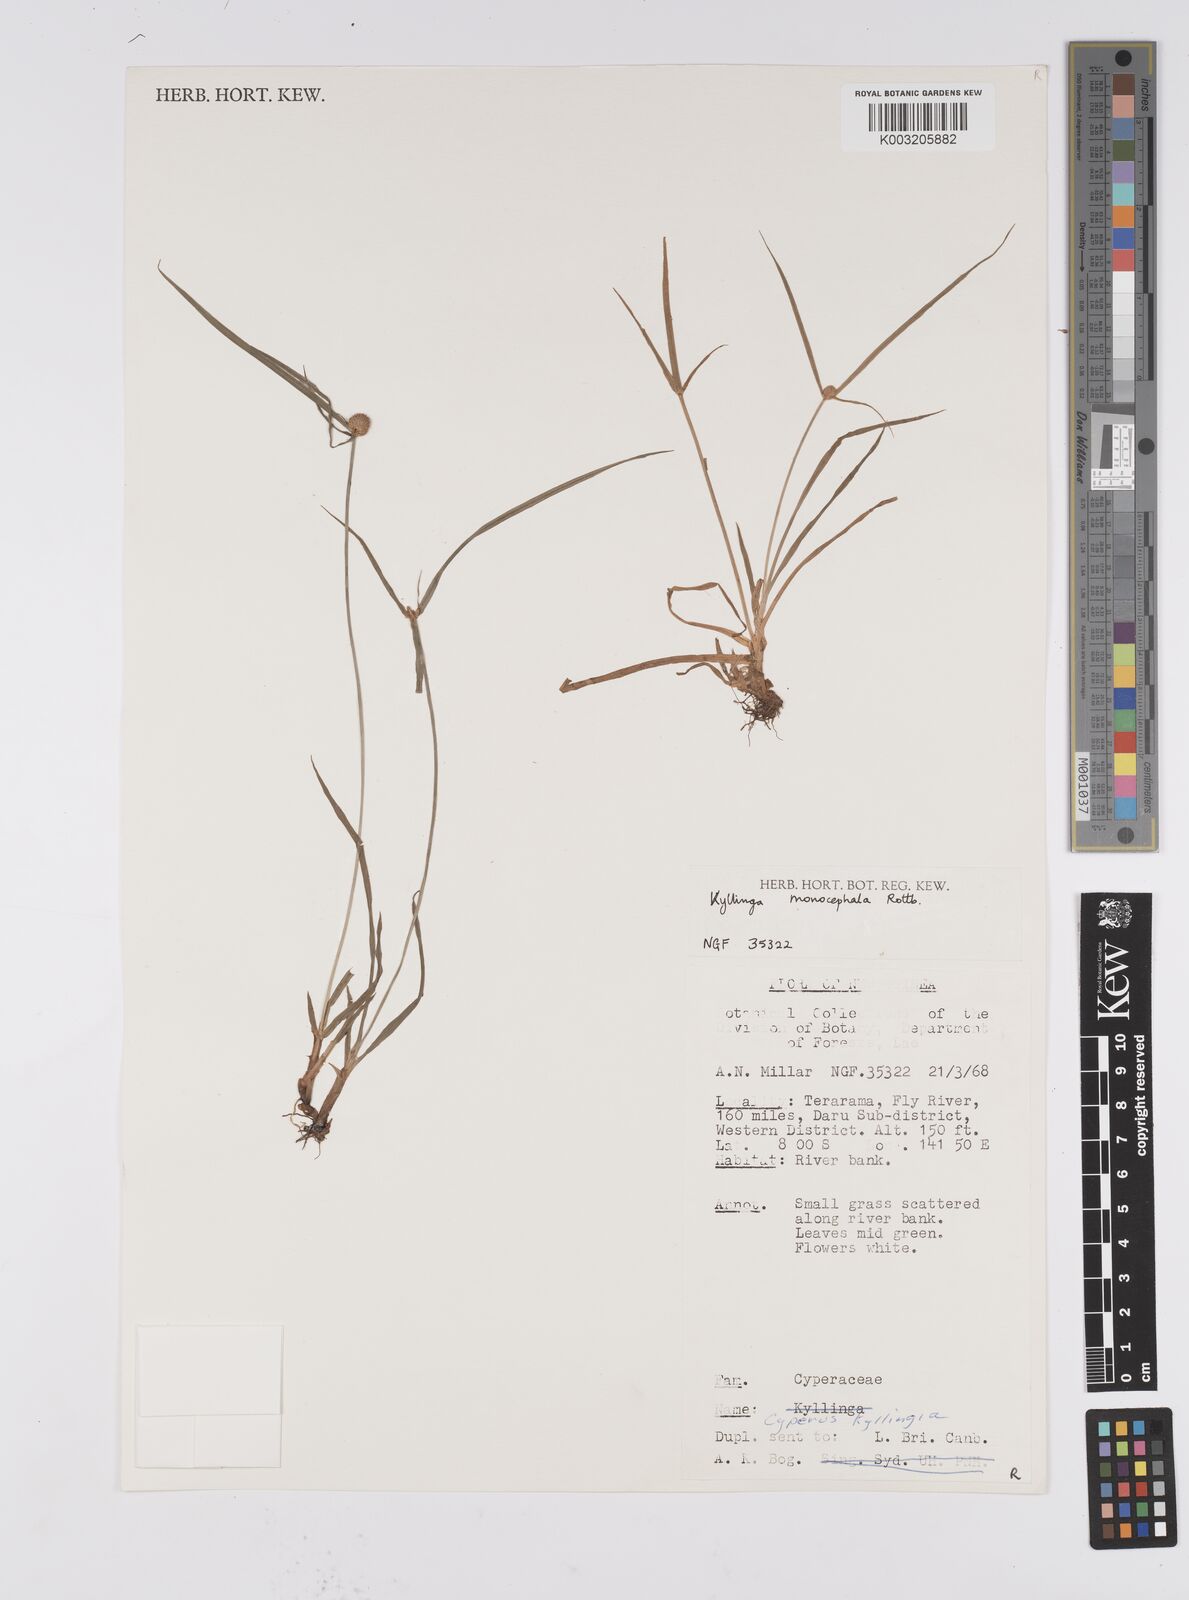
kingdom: Plantae
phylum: Tracheophyta
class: Liliopsida
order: Poales
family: Cyperaceae
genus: Cyperus
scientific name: Cyperus nemoralis
